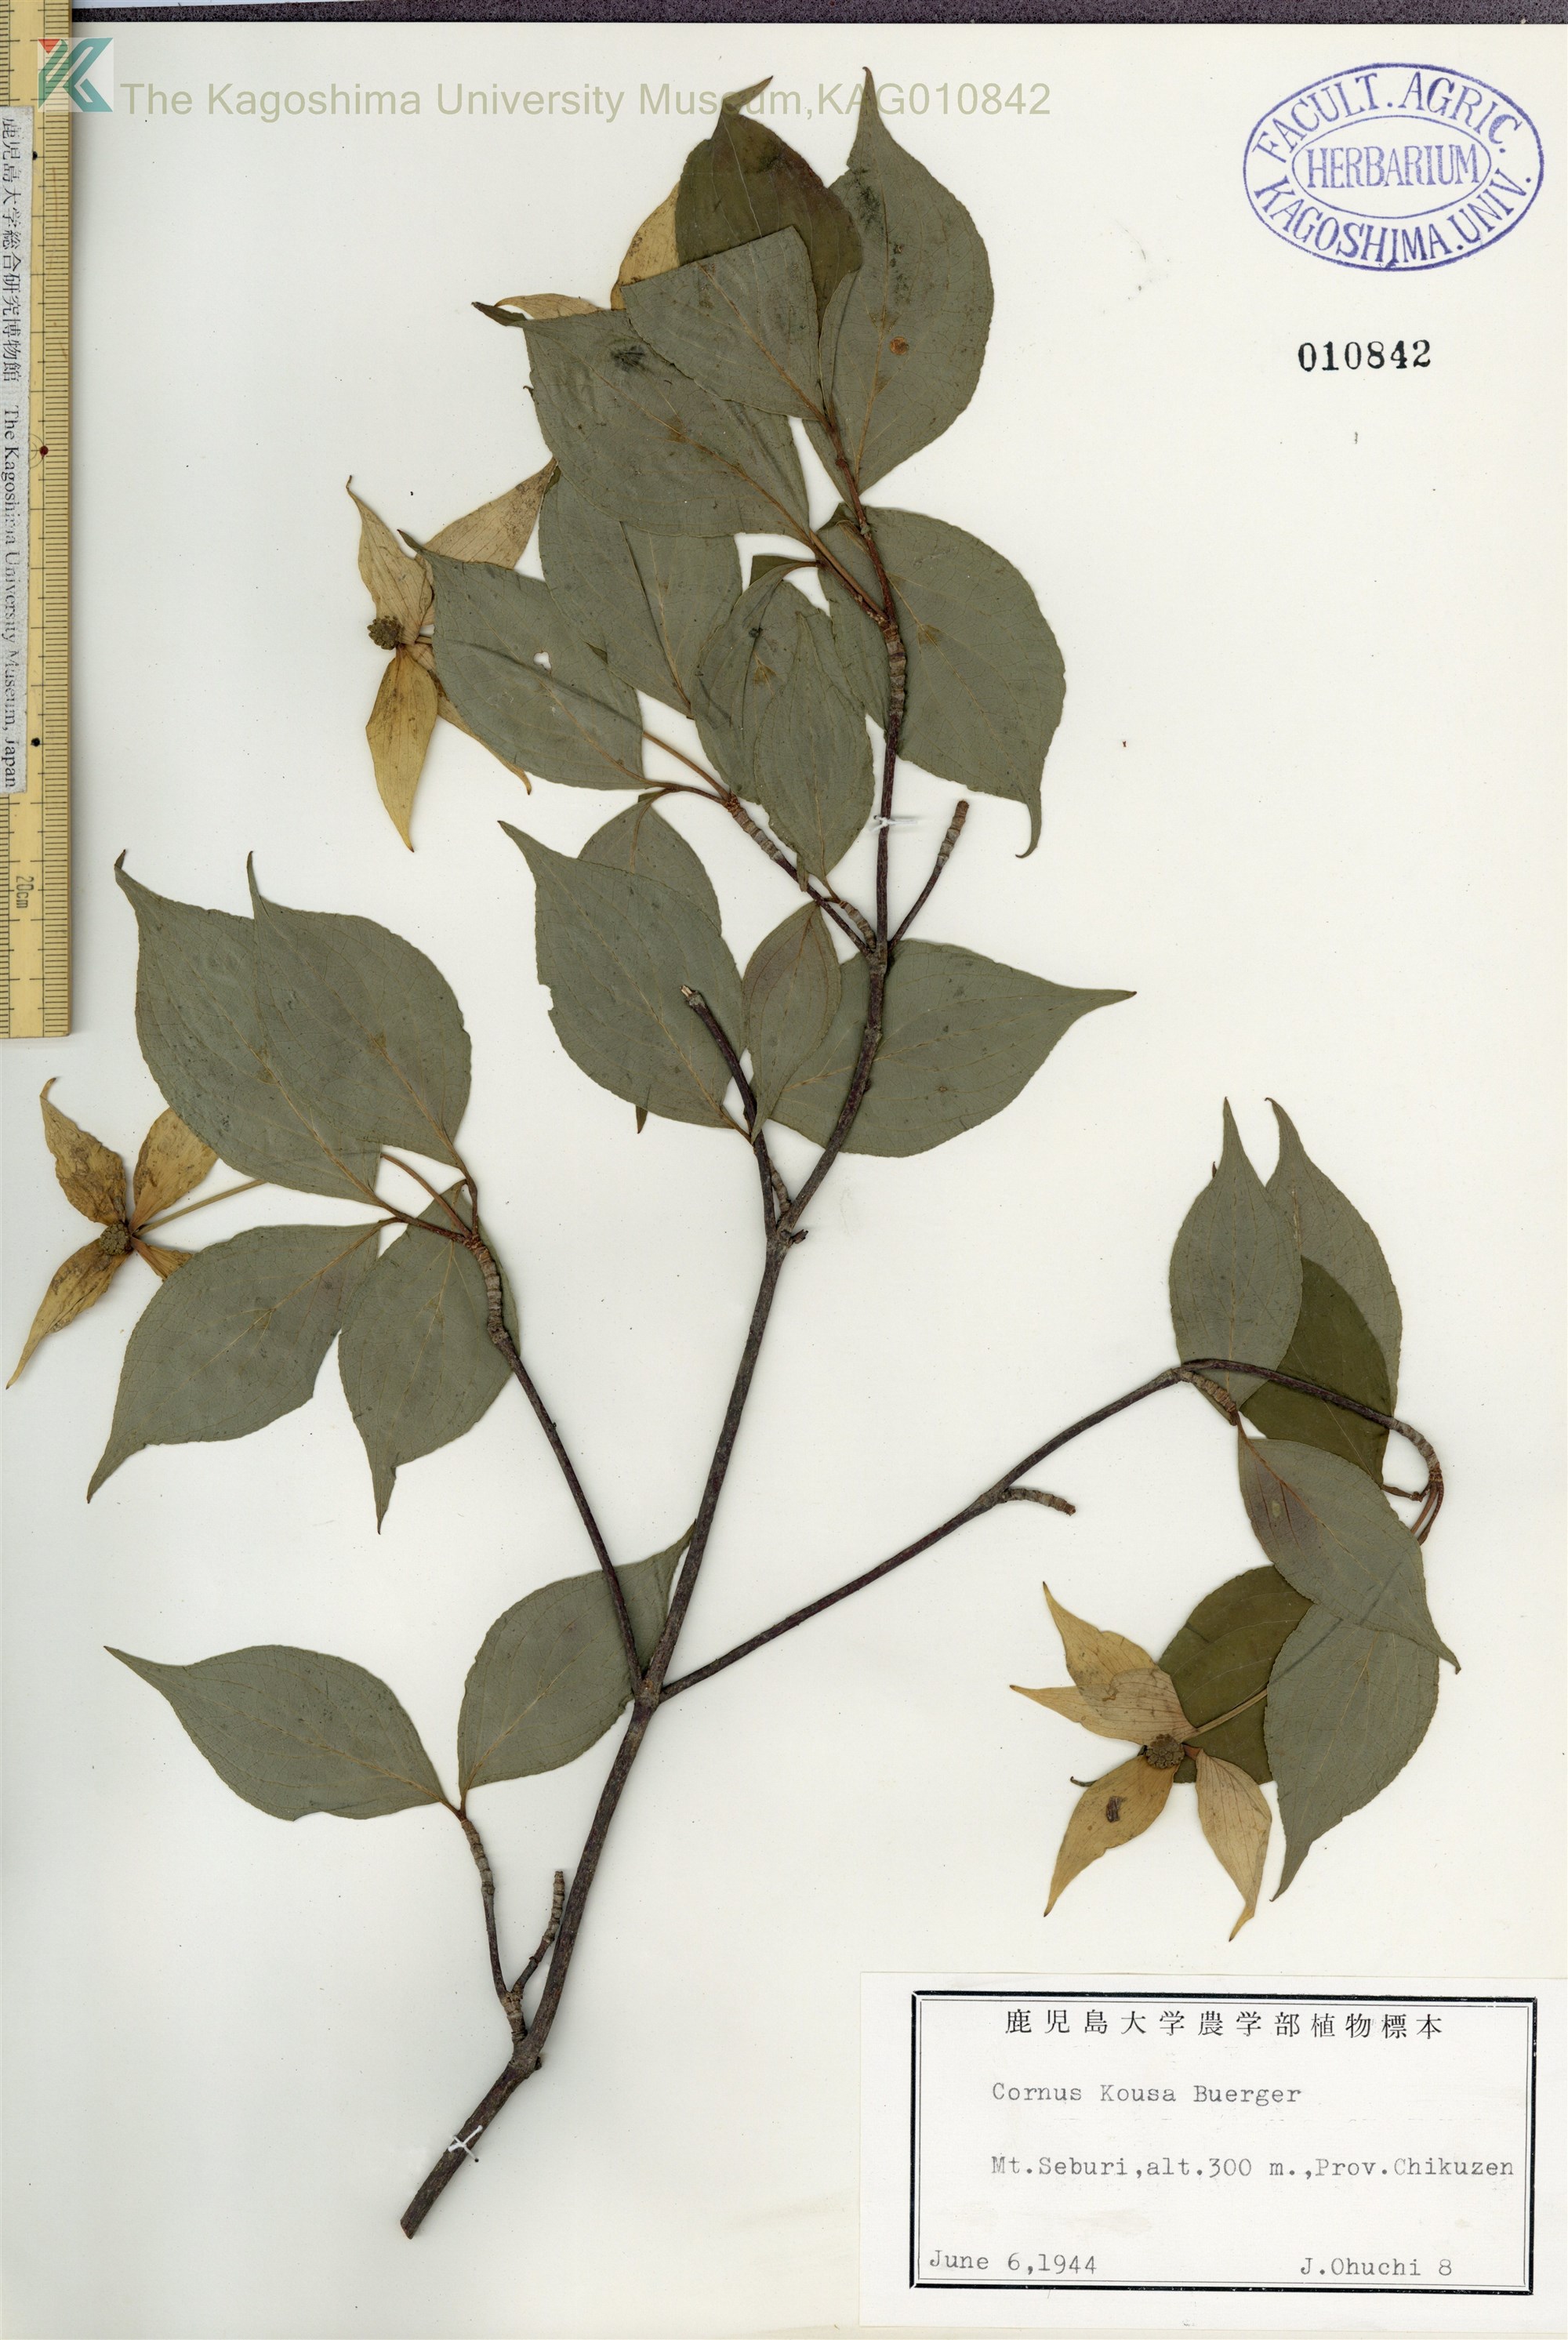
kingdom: Plantae
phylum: Tracheophyta
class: Magnoliopsida
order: Cornales
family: Cornaceae
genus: Cornus
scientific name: Cornus kousa
